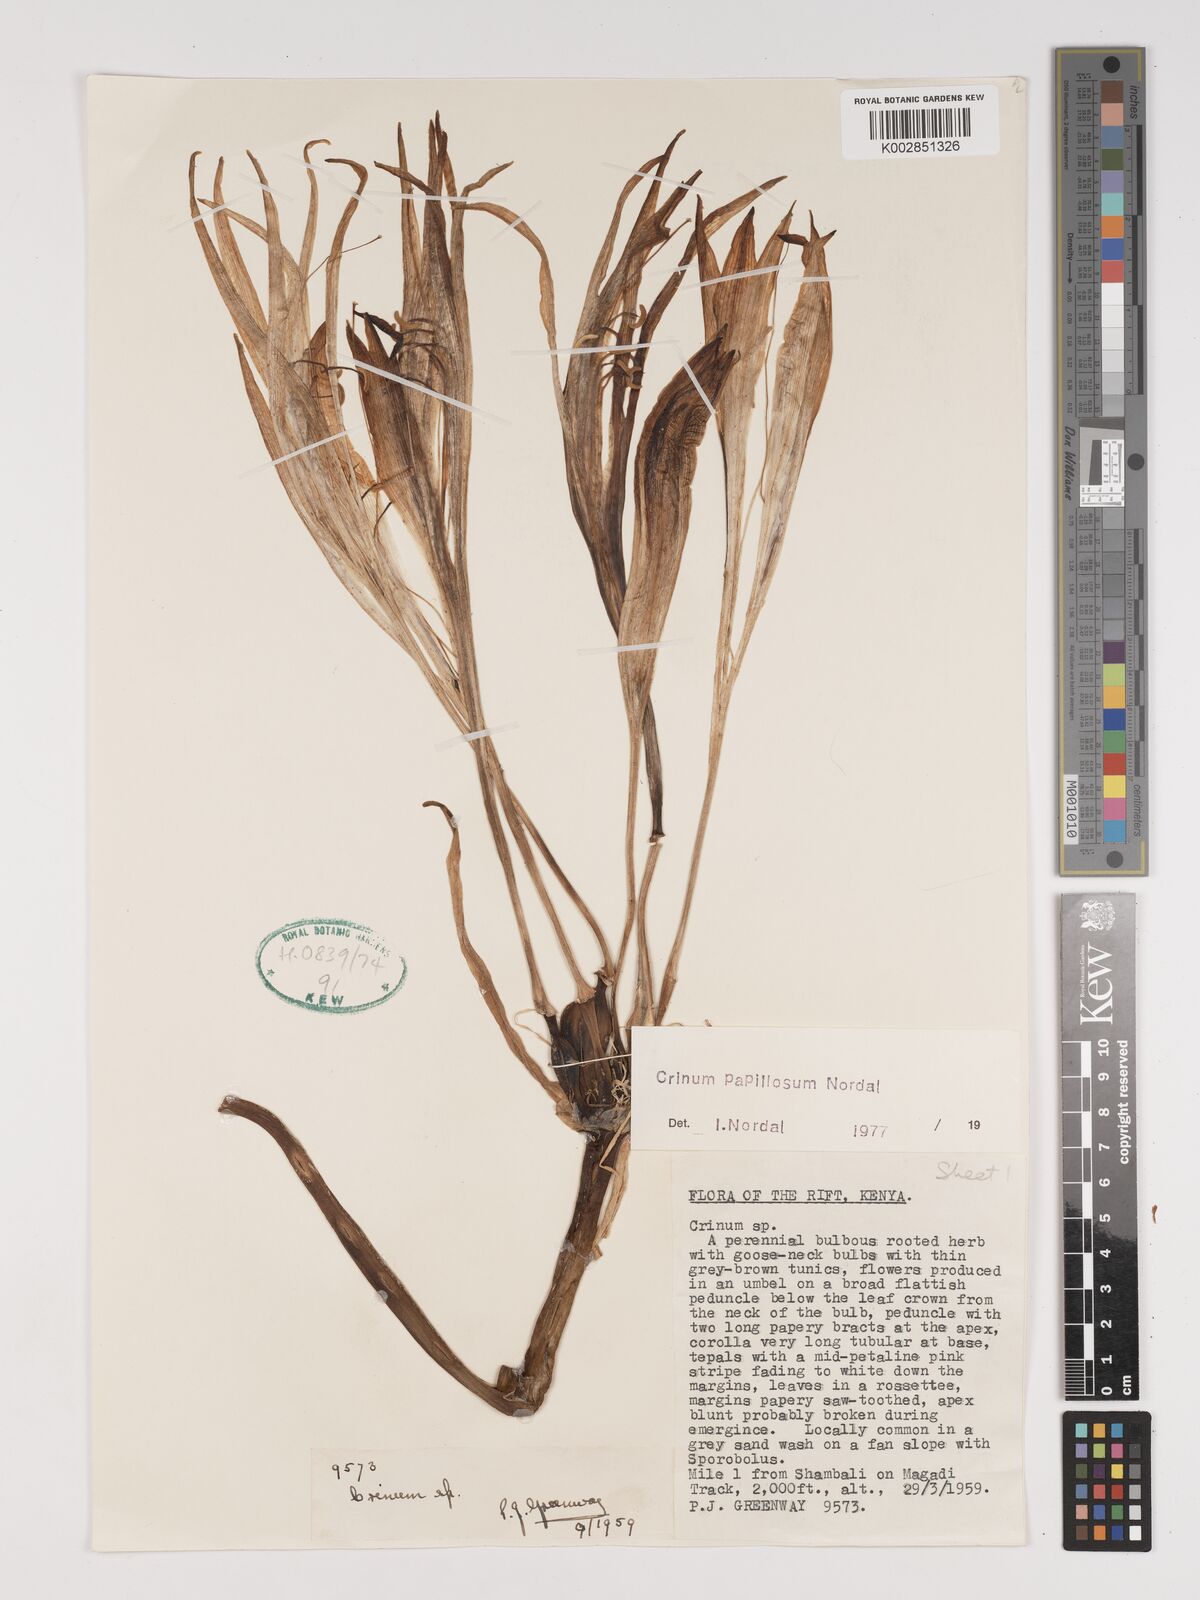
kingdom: Plantae
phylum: Tracheophyta
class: Liliopsida
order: Asparagales
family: Amaryllidaceae
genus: Crinum
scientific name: Crinum papillosum
